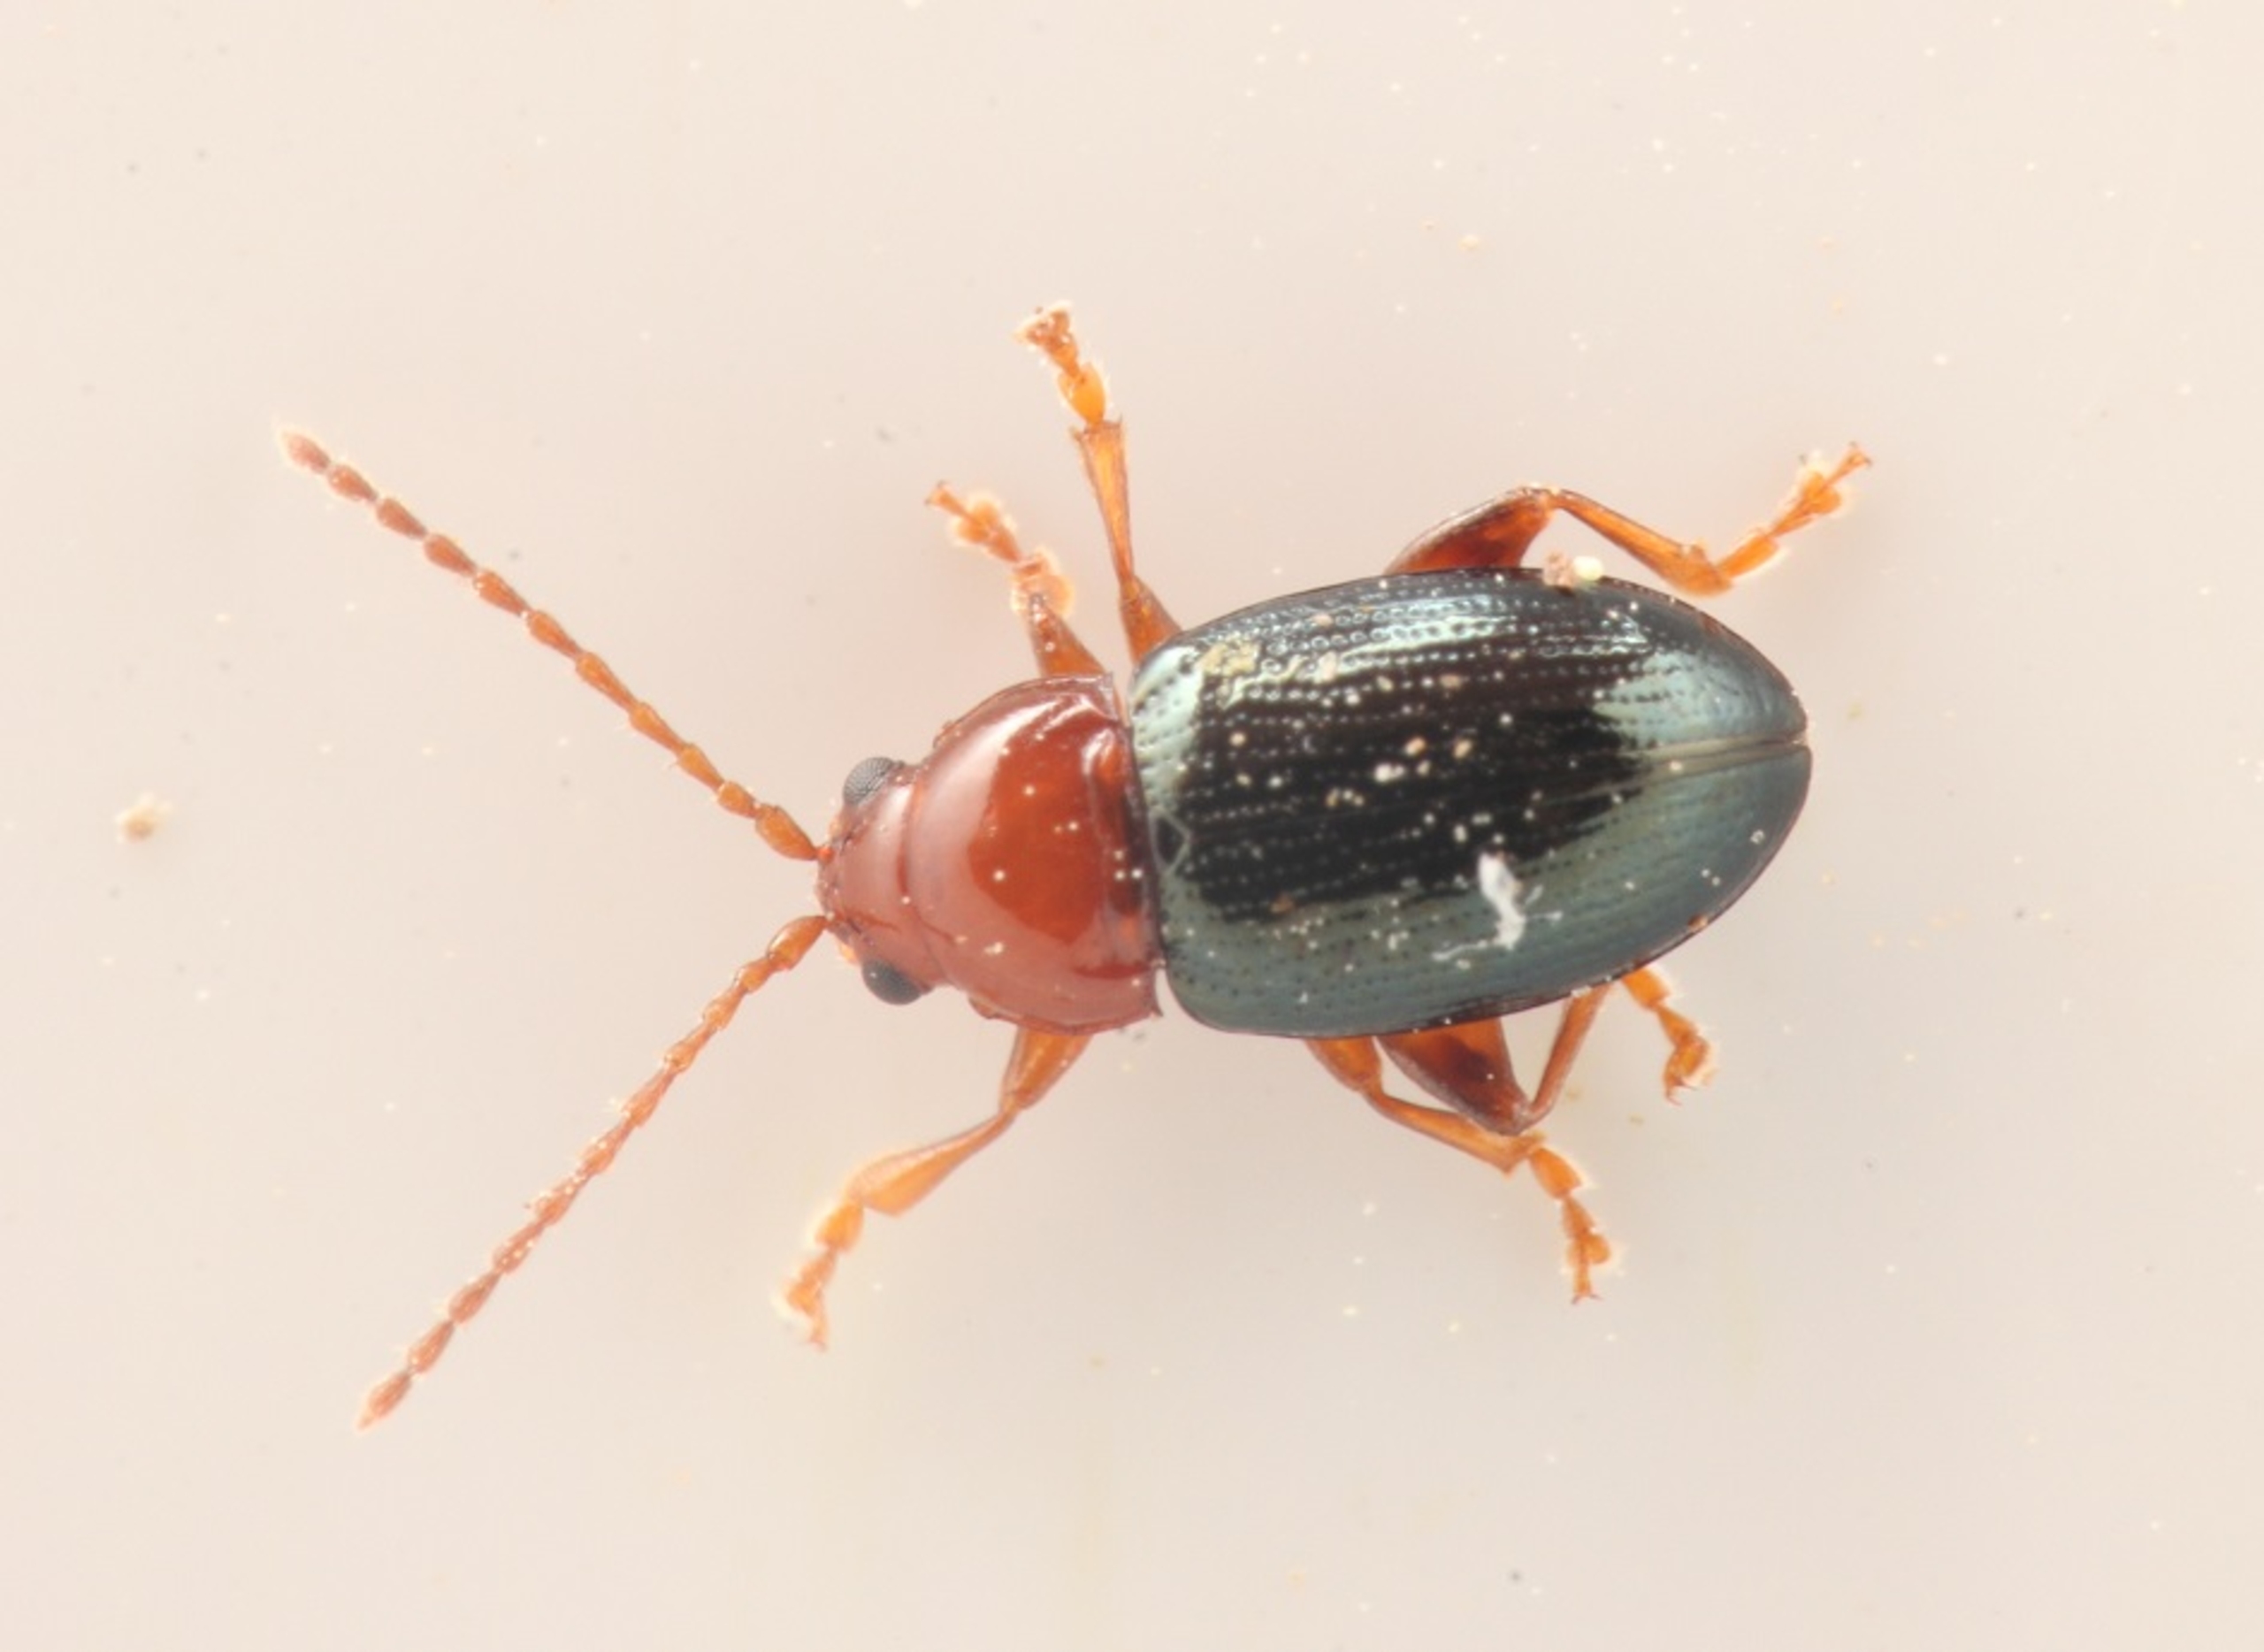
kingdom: Animalia
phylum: Arthropoda
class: Insecta
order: Coleoptera
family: Chrysomelidae
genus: Derocrepis
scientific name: Derocrepis rufipes
